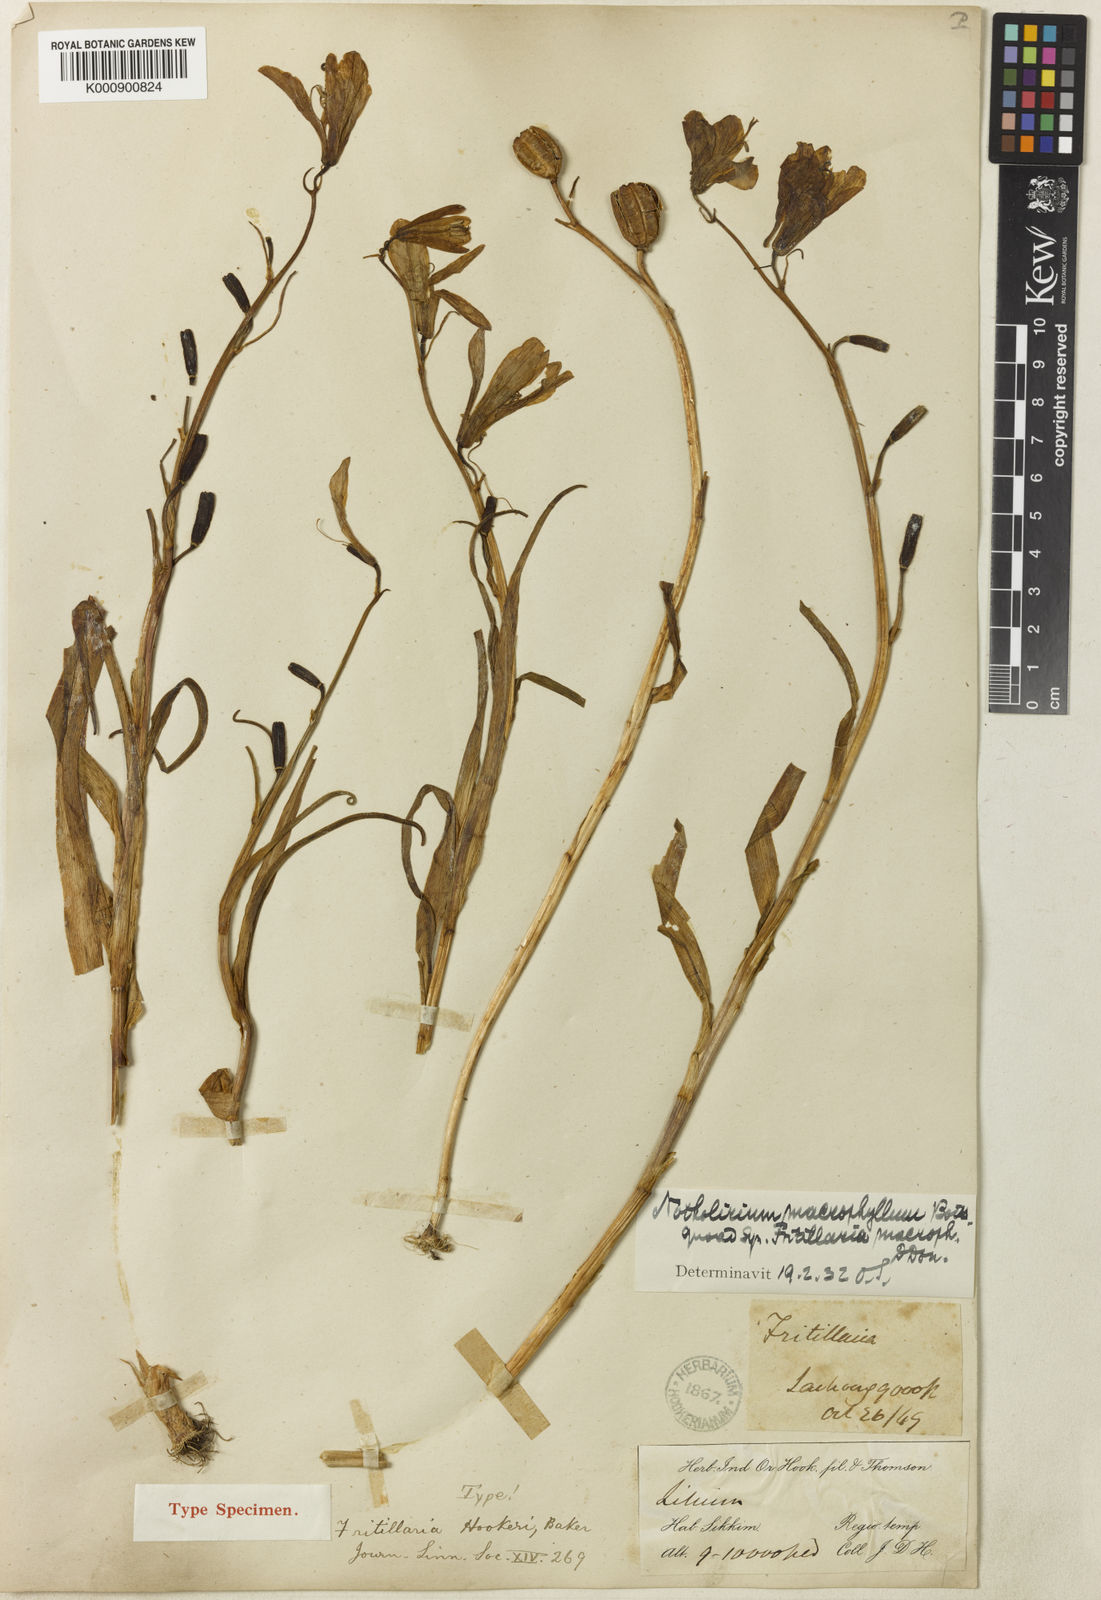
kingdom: Plantae
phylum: Tracheophyta
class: Liliopsida
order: Liliales
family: Liliaceae
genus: Notholirion
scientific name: Notholirion macrophyllum
